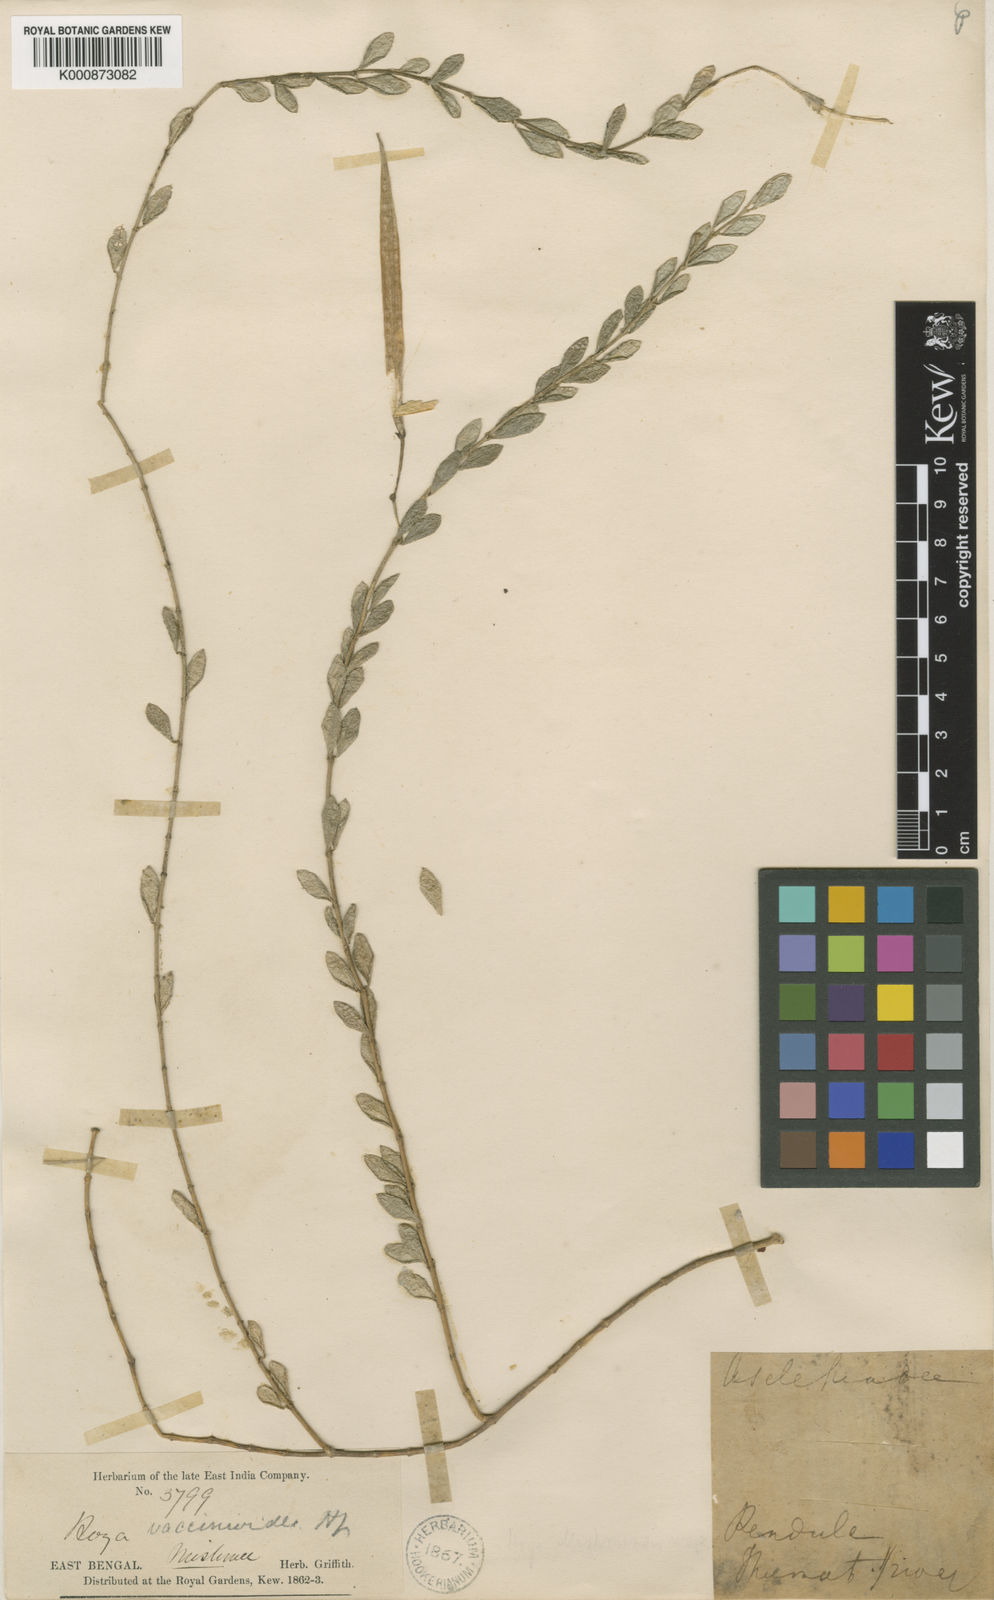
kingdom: Plantae
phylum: Tracheophyta
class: Magnoliopsida
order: Gentianales
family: Apocynaceae
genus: Hoya
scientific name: Hoya vaccinioides
